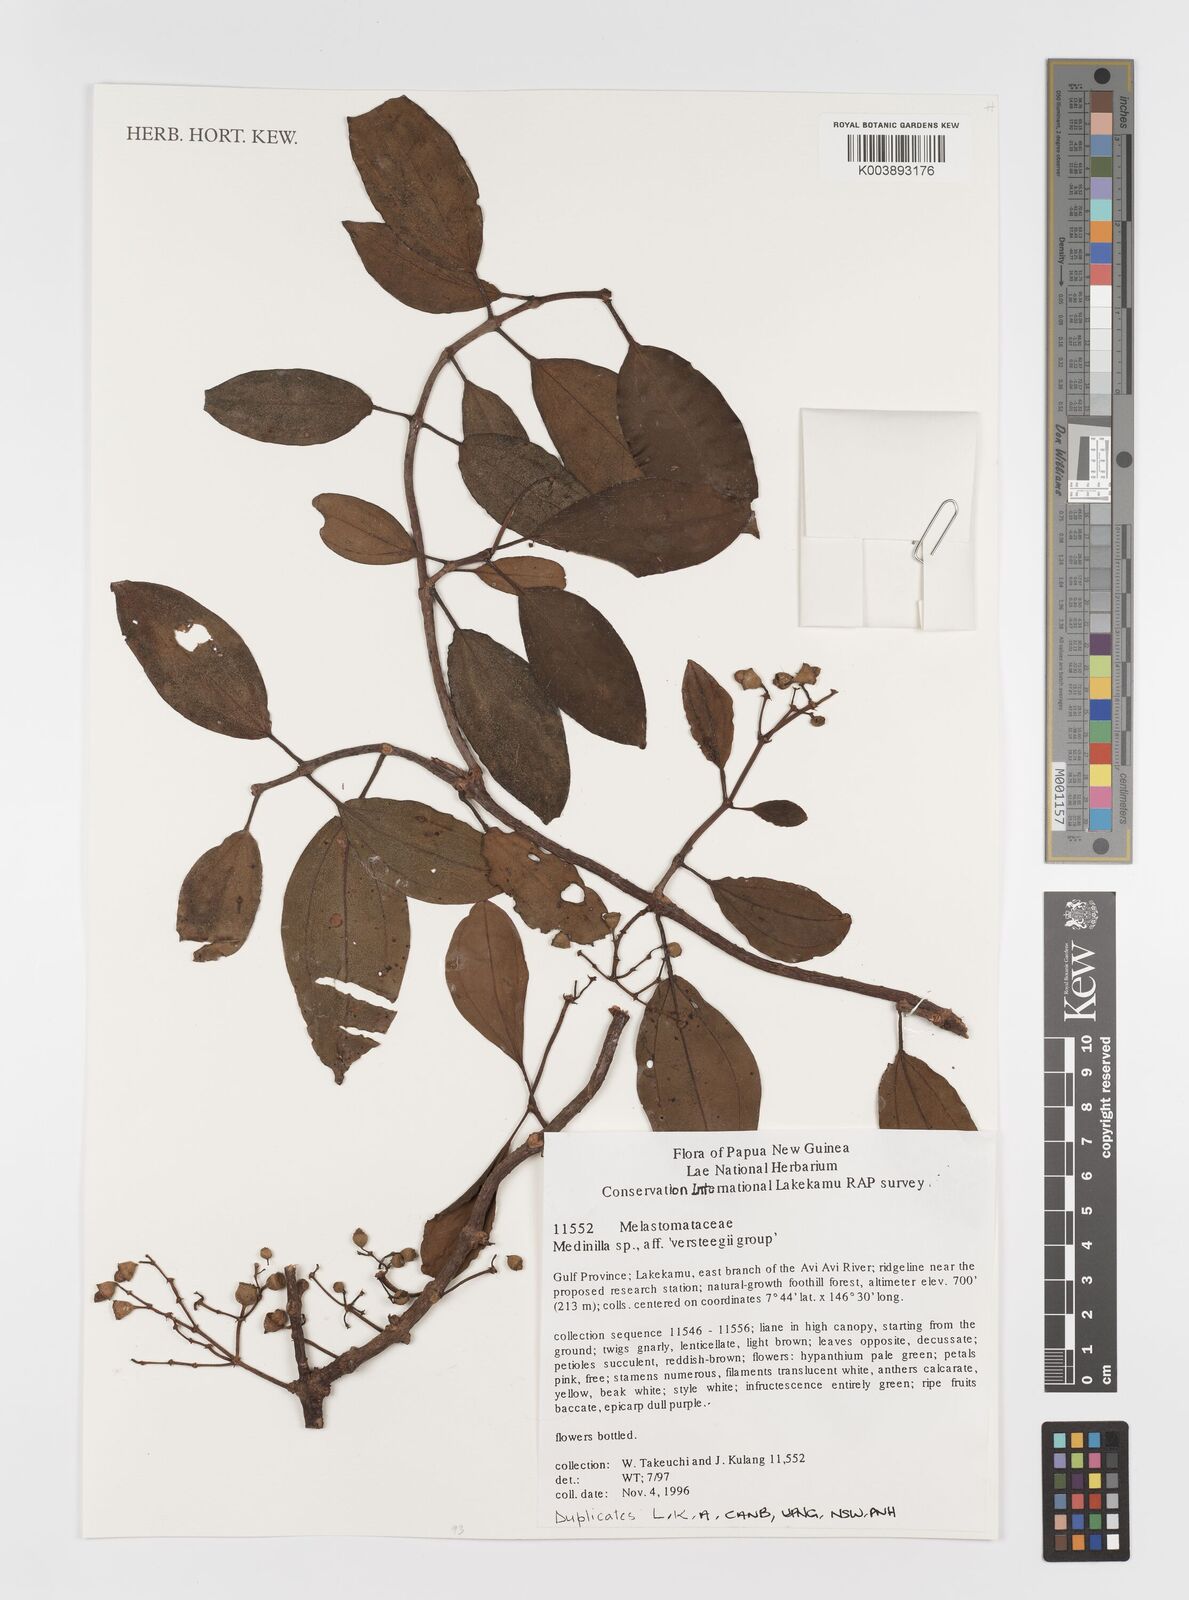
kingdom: Plantae
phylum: Tracheophyta
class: Magnoliopsida
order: Myrtales
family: Melastomataceae
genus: Medinilla
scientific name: Medinilla versteegii
